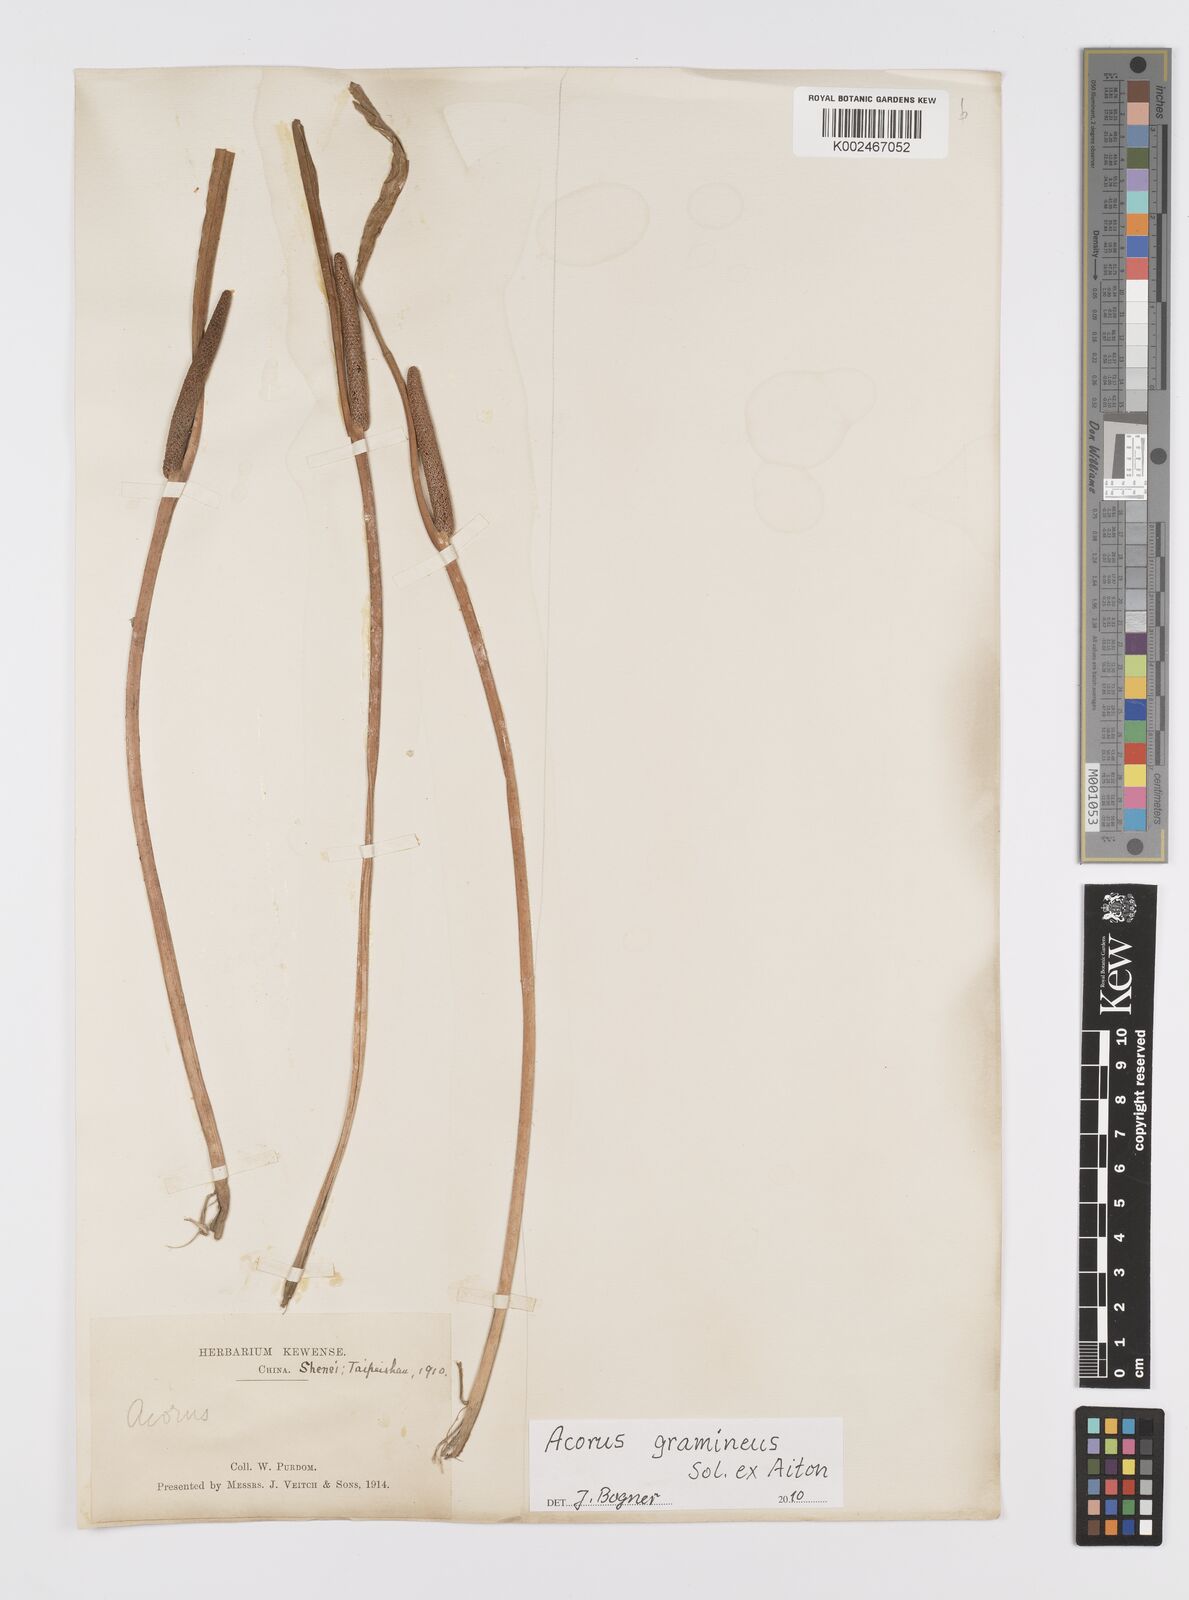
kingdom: Plantae
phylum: Tracheophyta
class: Liliopsida
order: Acorales
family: Acoraceae
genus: Acorus
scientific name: Acorus gramineus
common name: Slender sweet-flag
